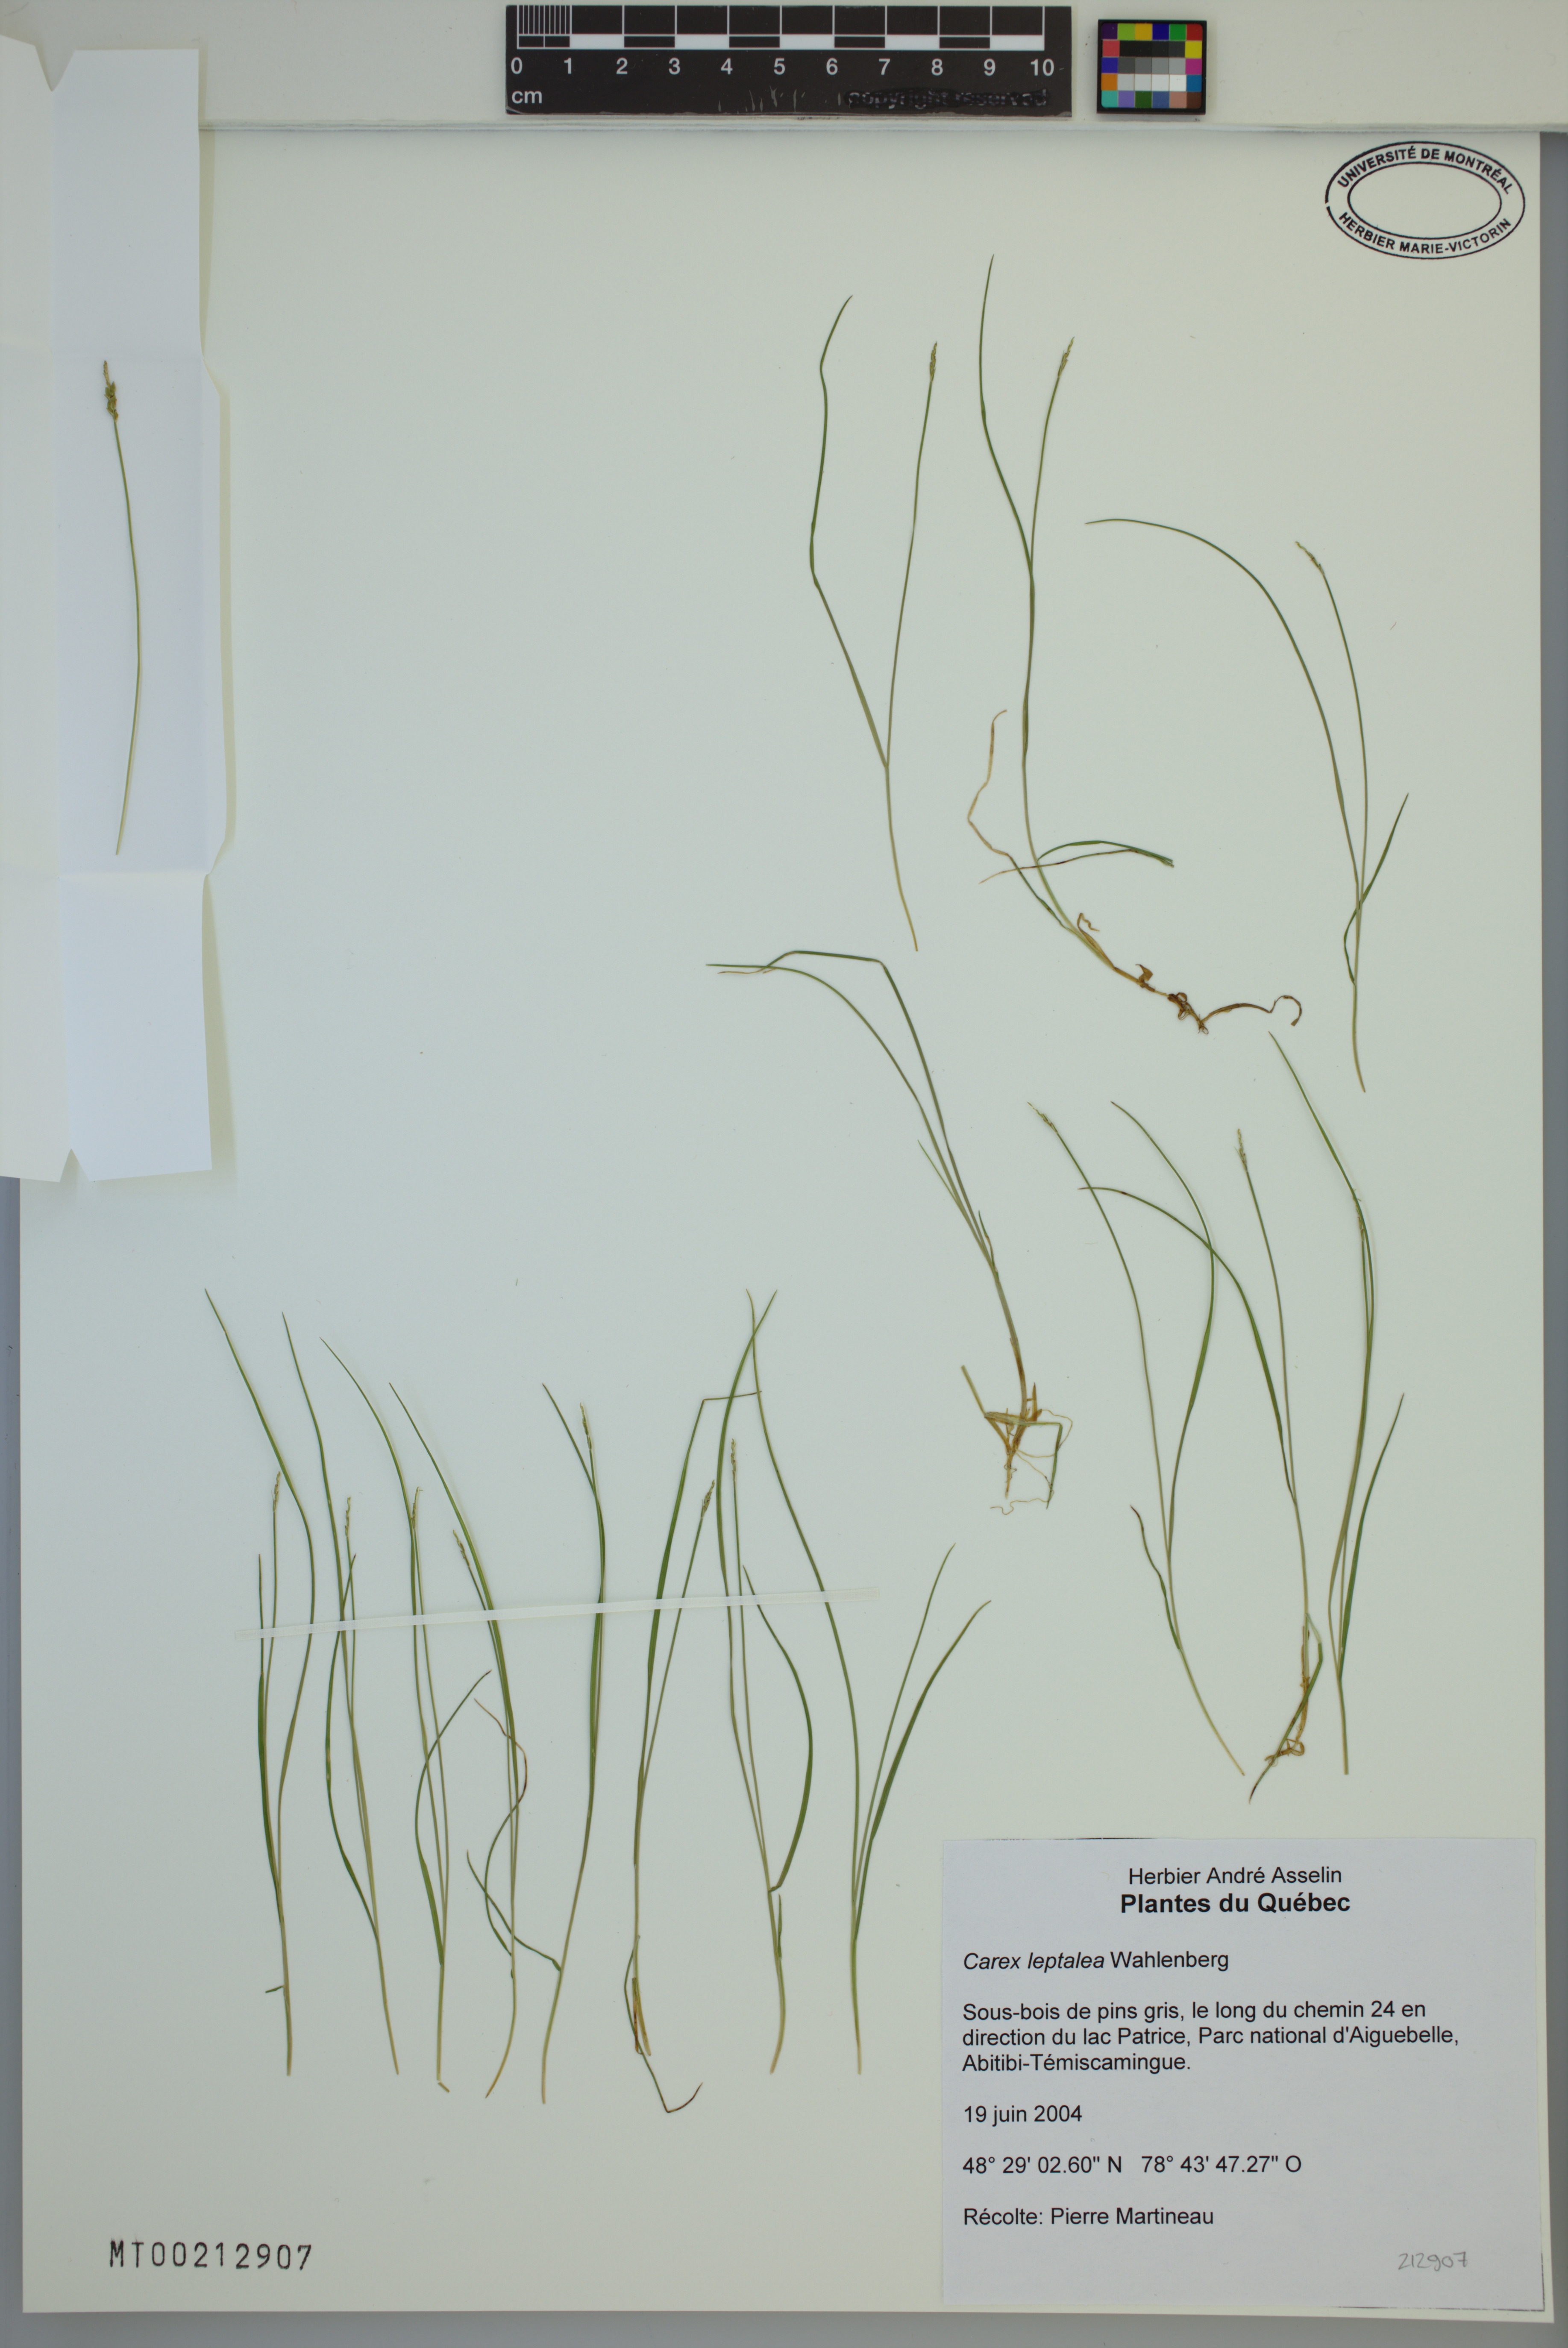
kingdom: Plantae
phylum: Tracheophyta
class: Liliopsida
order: Poales
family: Cyperaceae
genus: Carex
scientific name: Carex leptalea
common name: Bristly-stalked sedge
